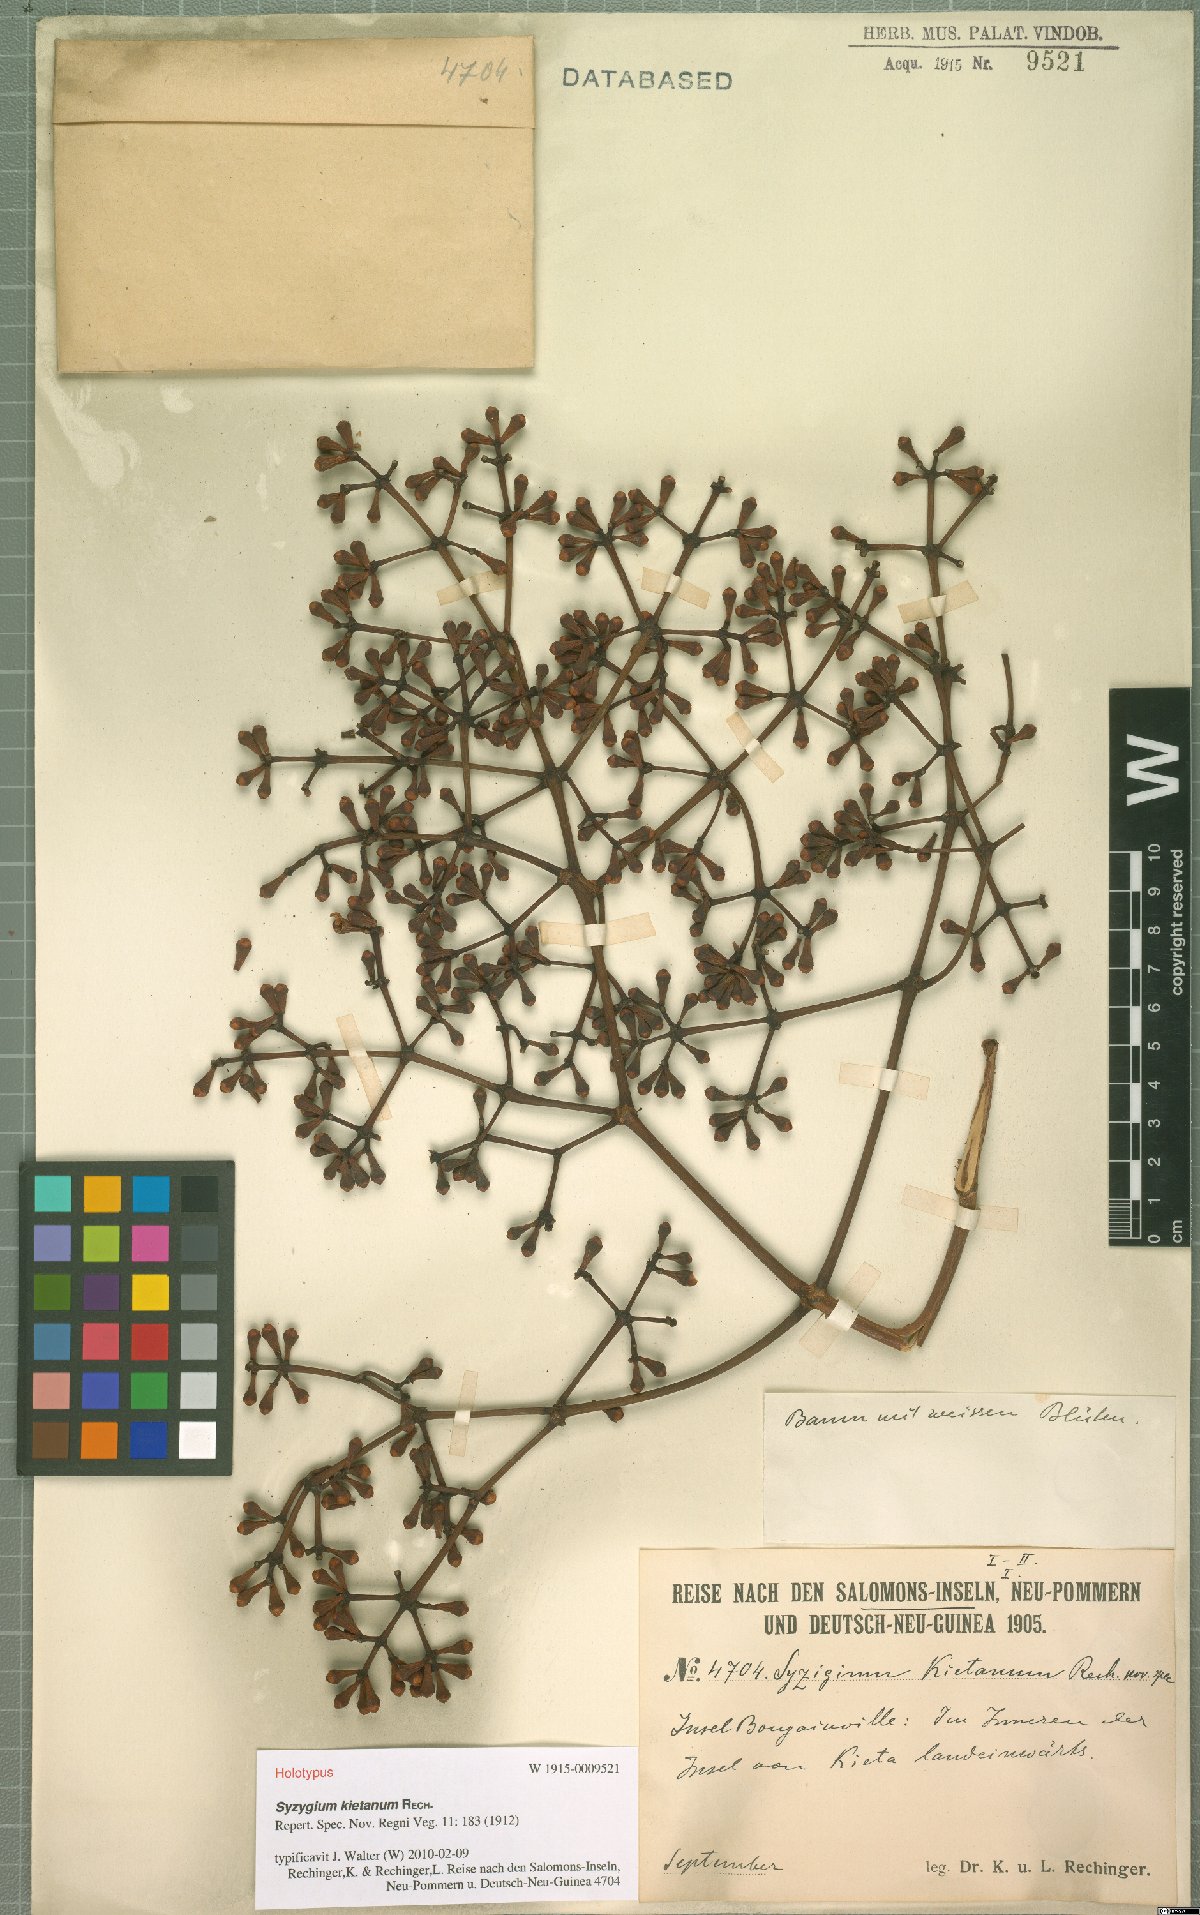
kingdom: Plantae
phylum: Tracheophyta
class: Magnoliopsida
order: Myrtales
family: Myrtaceae
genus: Syzygium
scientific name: Syzygium kietanum
